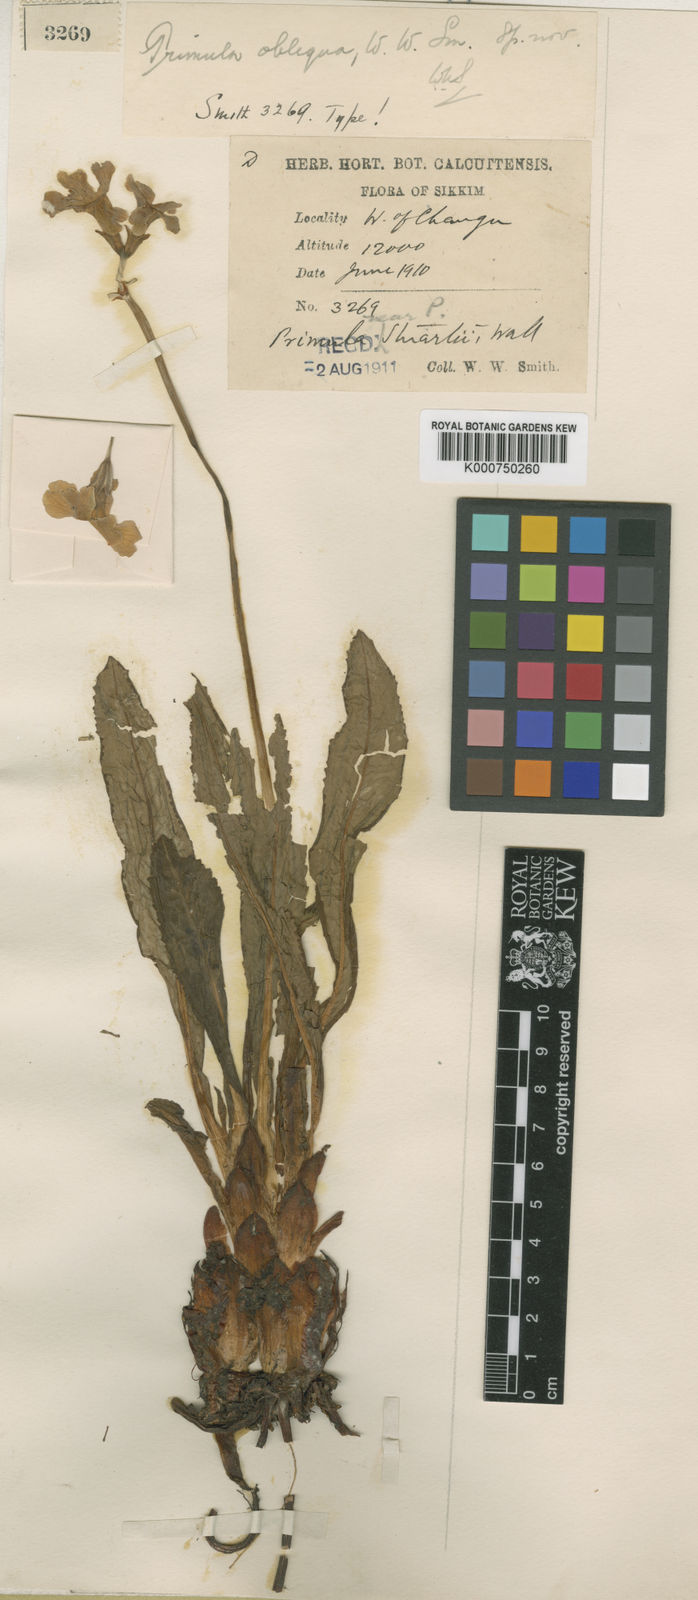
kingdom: Plantae
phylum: Tracheophyta
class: Magnoliopsida
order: Ericales
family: Primulaceae
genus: Primula
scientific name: Primula obliqua
